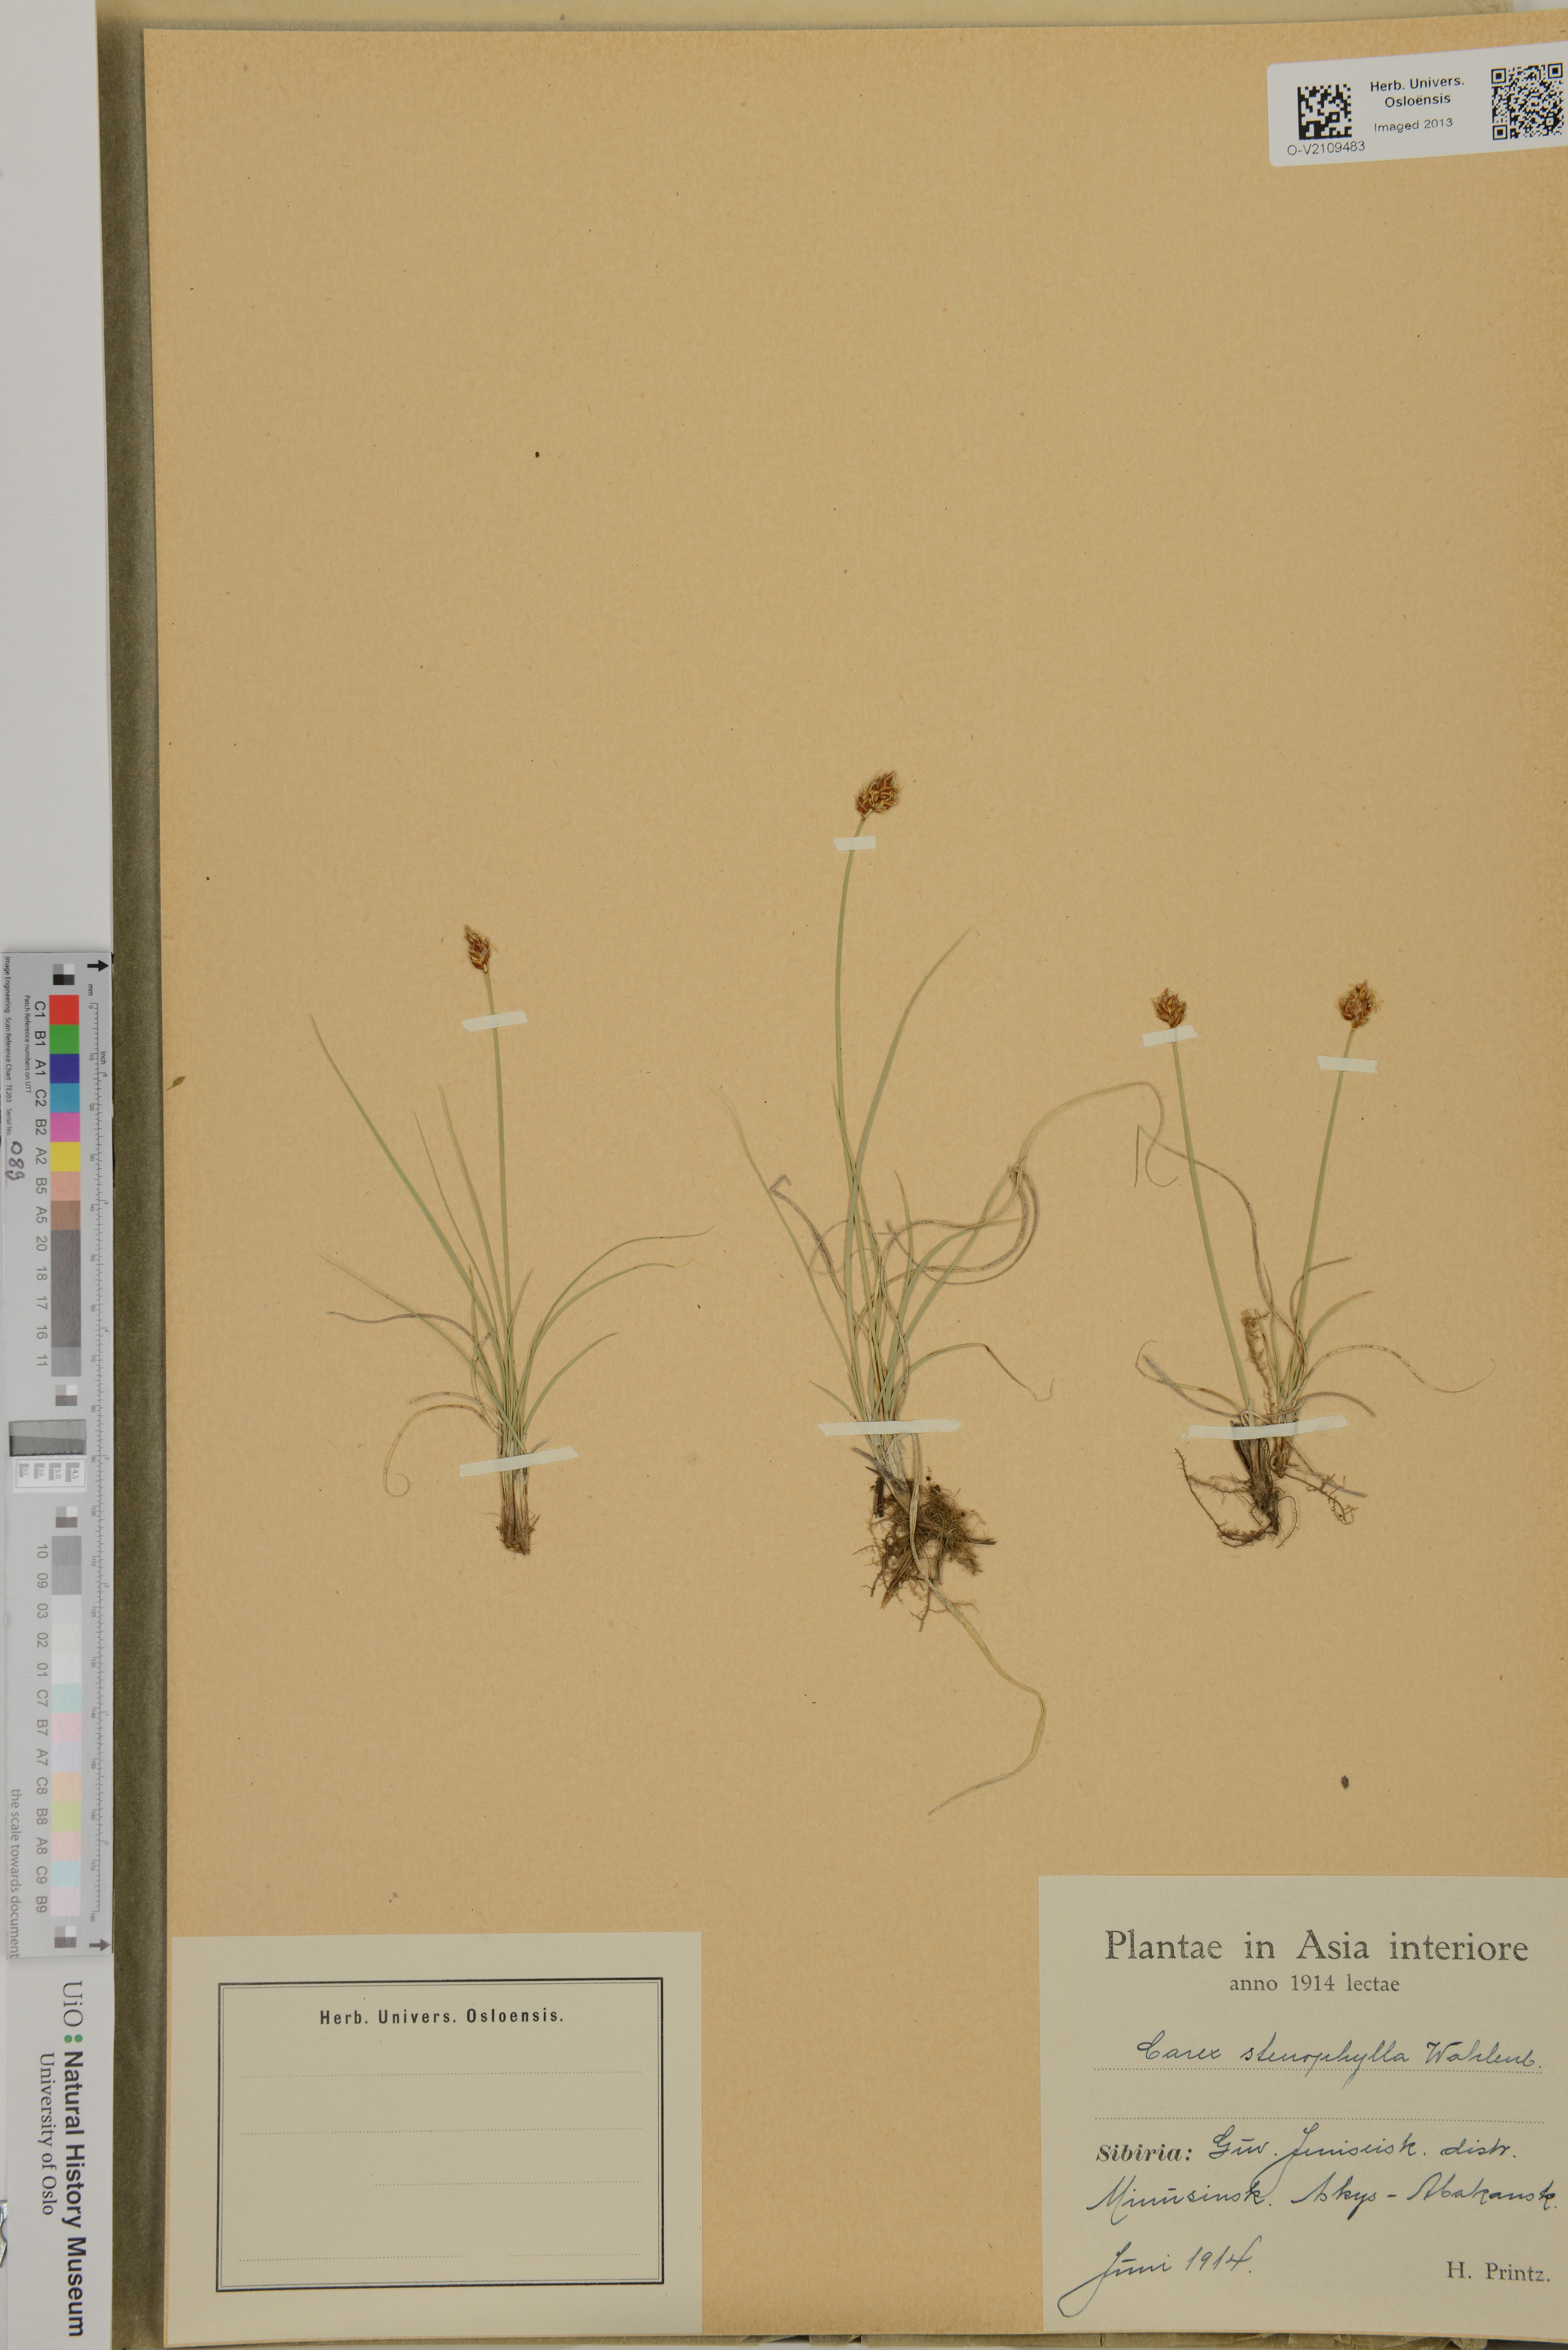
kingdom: Plantae
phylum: Tracheophyta
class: Liliopsida
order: Poales
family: Cyperaceae
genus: Carex
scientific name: Carex stenophylla
